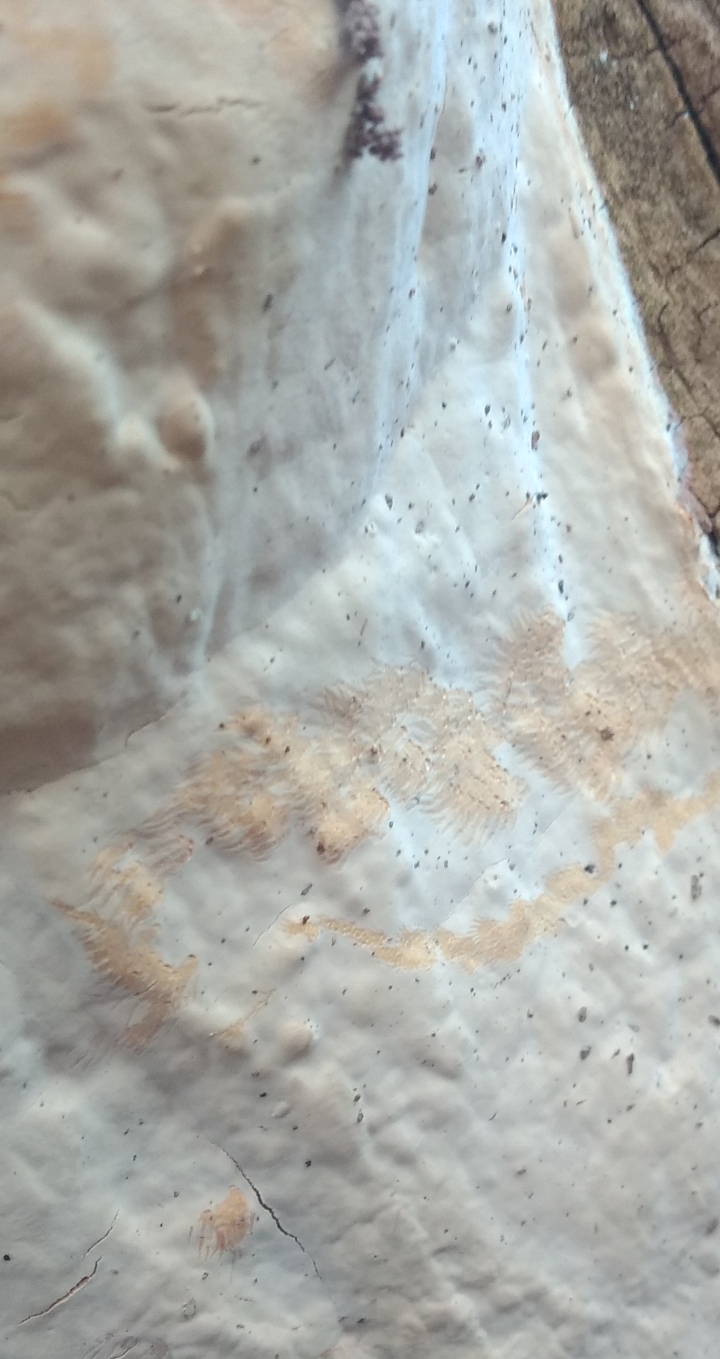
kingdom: Fungi
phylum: Basidiomycota
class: Agaricomycetes
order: Russulales
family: Peniophoraceae
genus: Scytinostroma
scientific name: Scytinostroma hemidichophyticum
